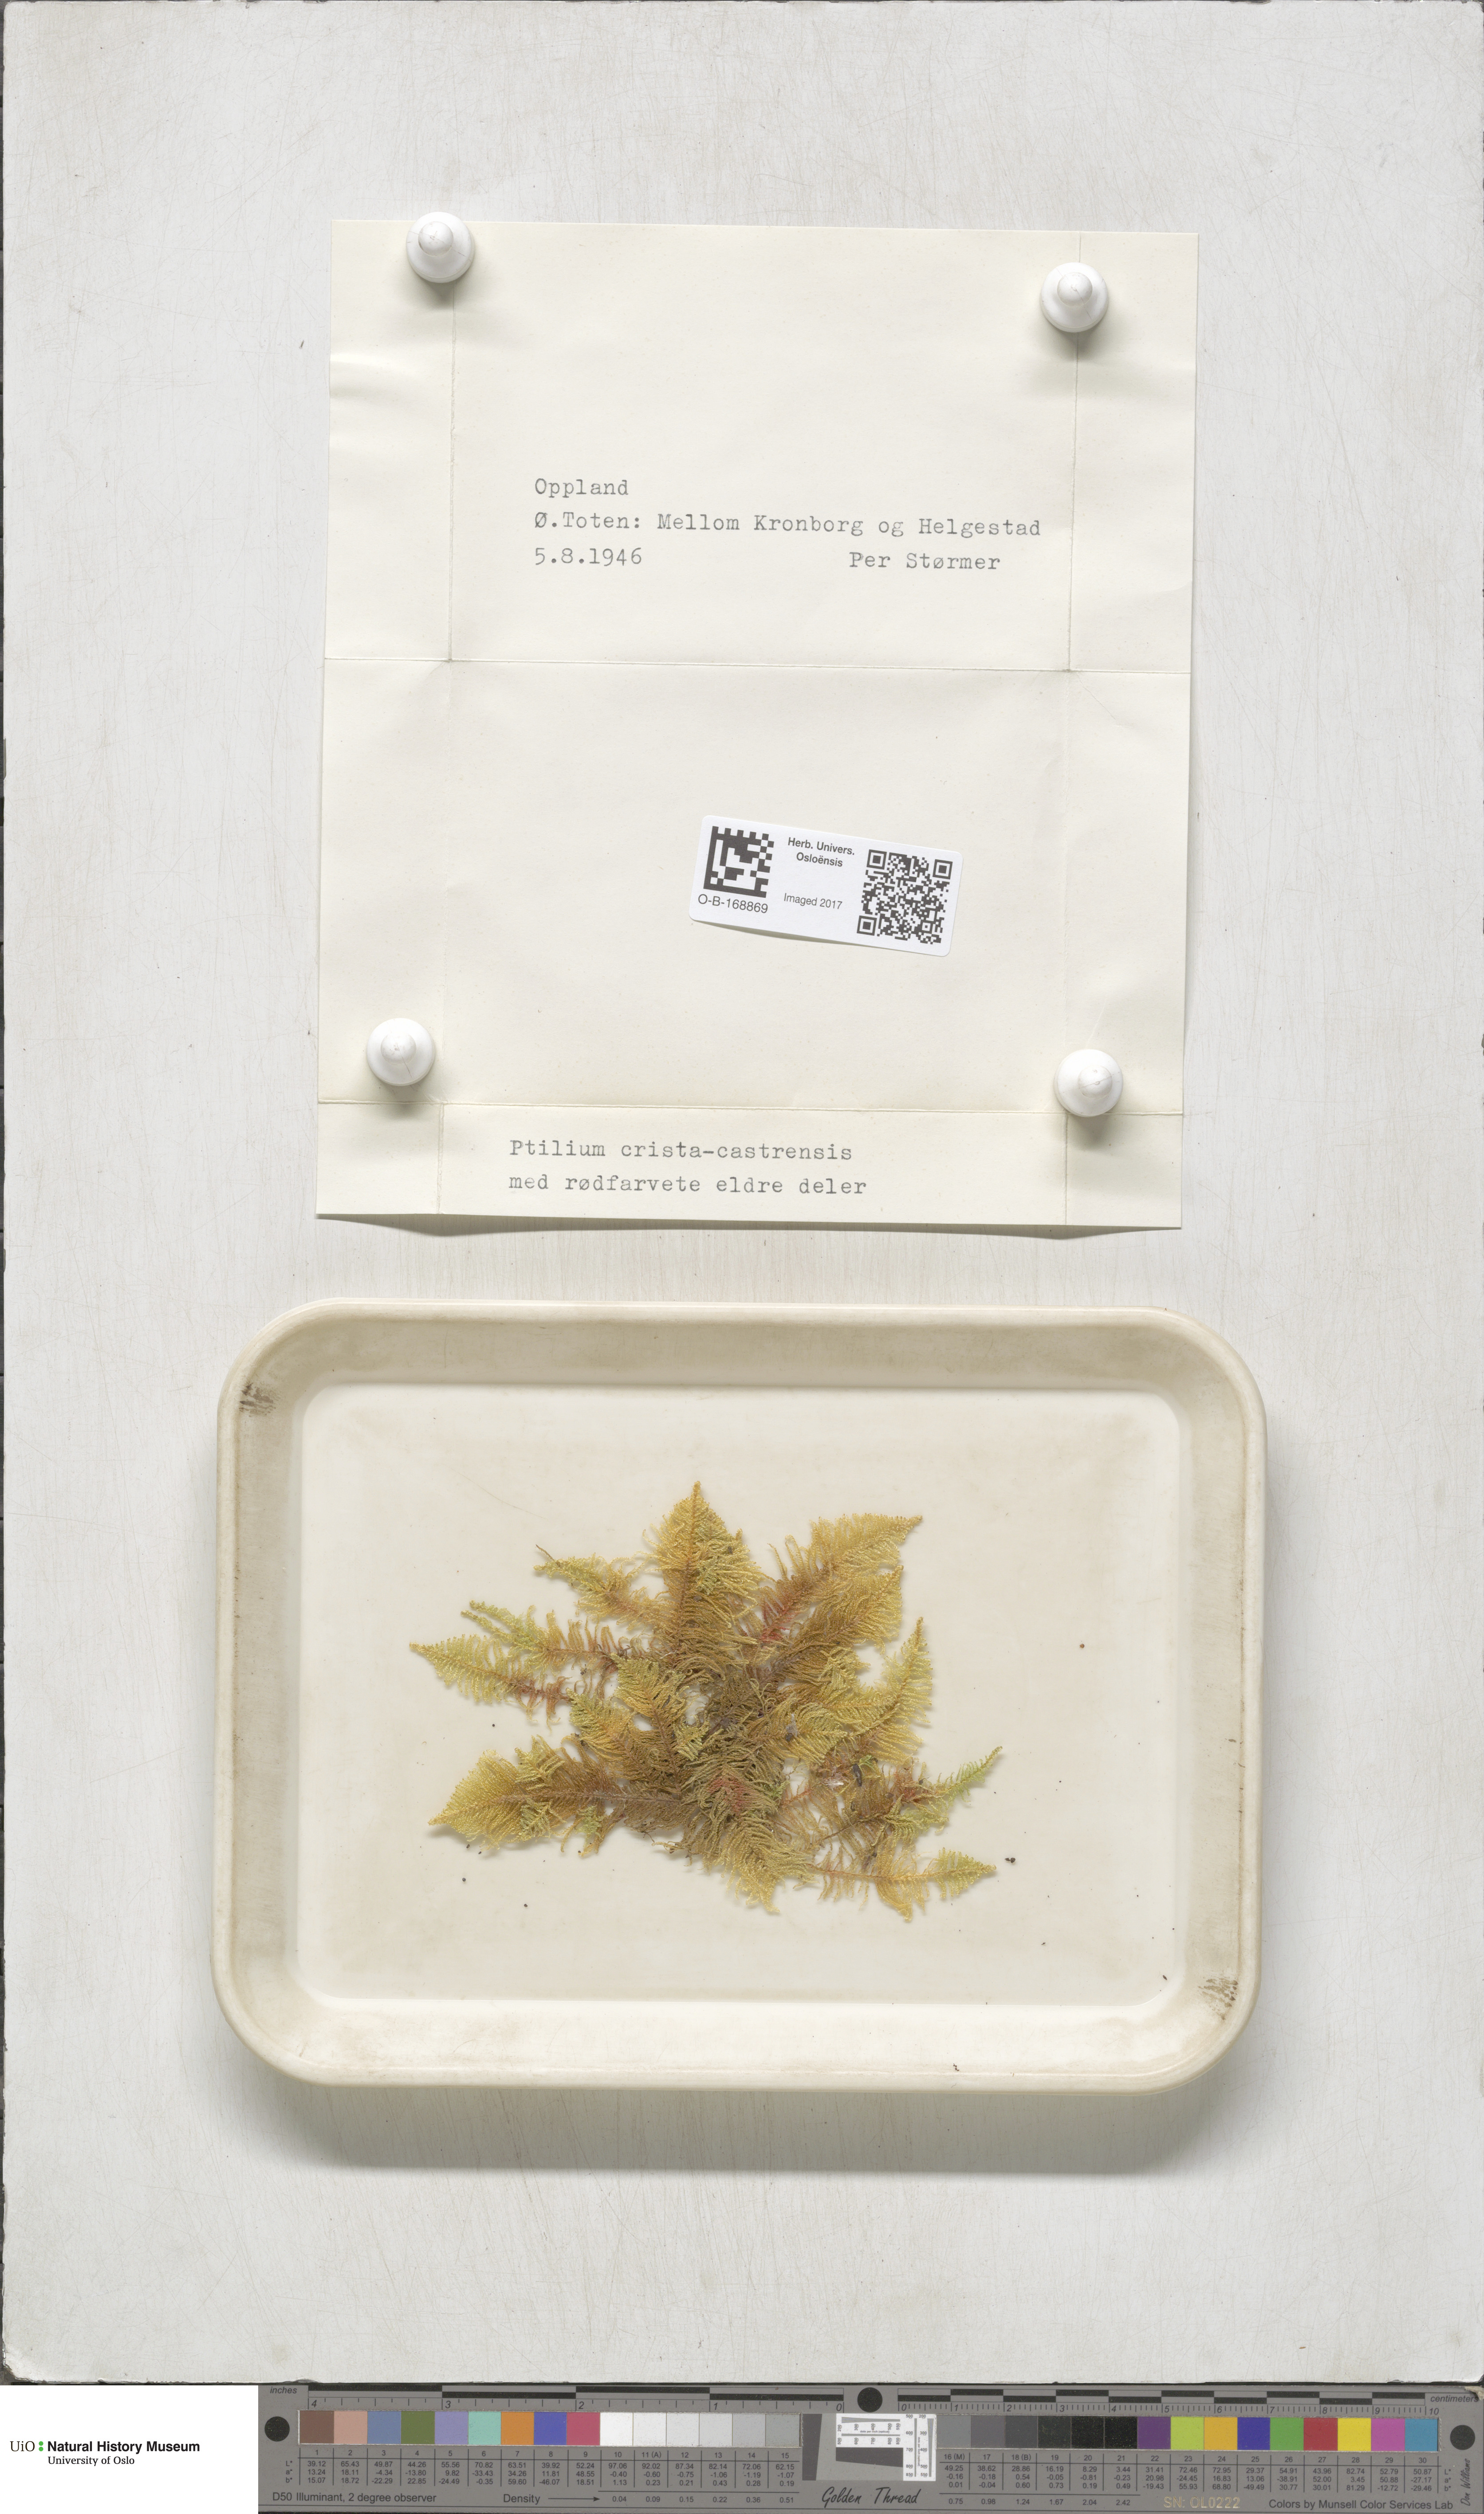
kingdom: Plantae
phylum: Bryophyta
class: Bryopsida
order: Hypnales
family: Pylaisiaceae
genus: Ptilium
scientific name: Ptilium crista-castrensis
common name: Knight's plume moss
